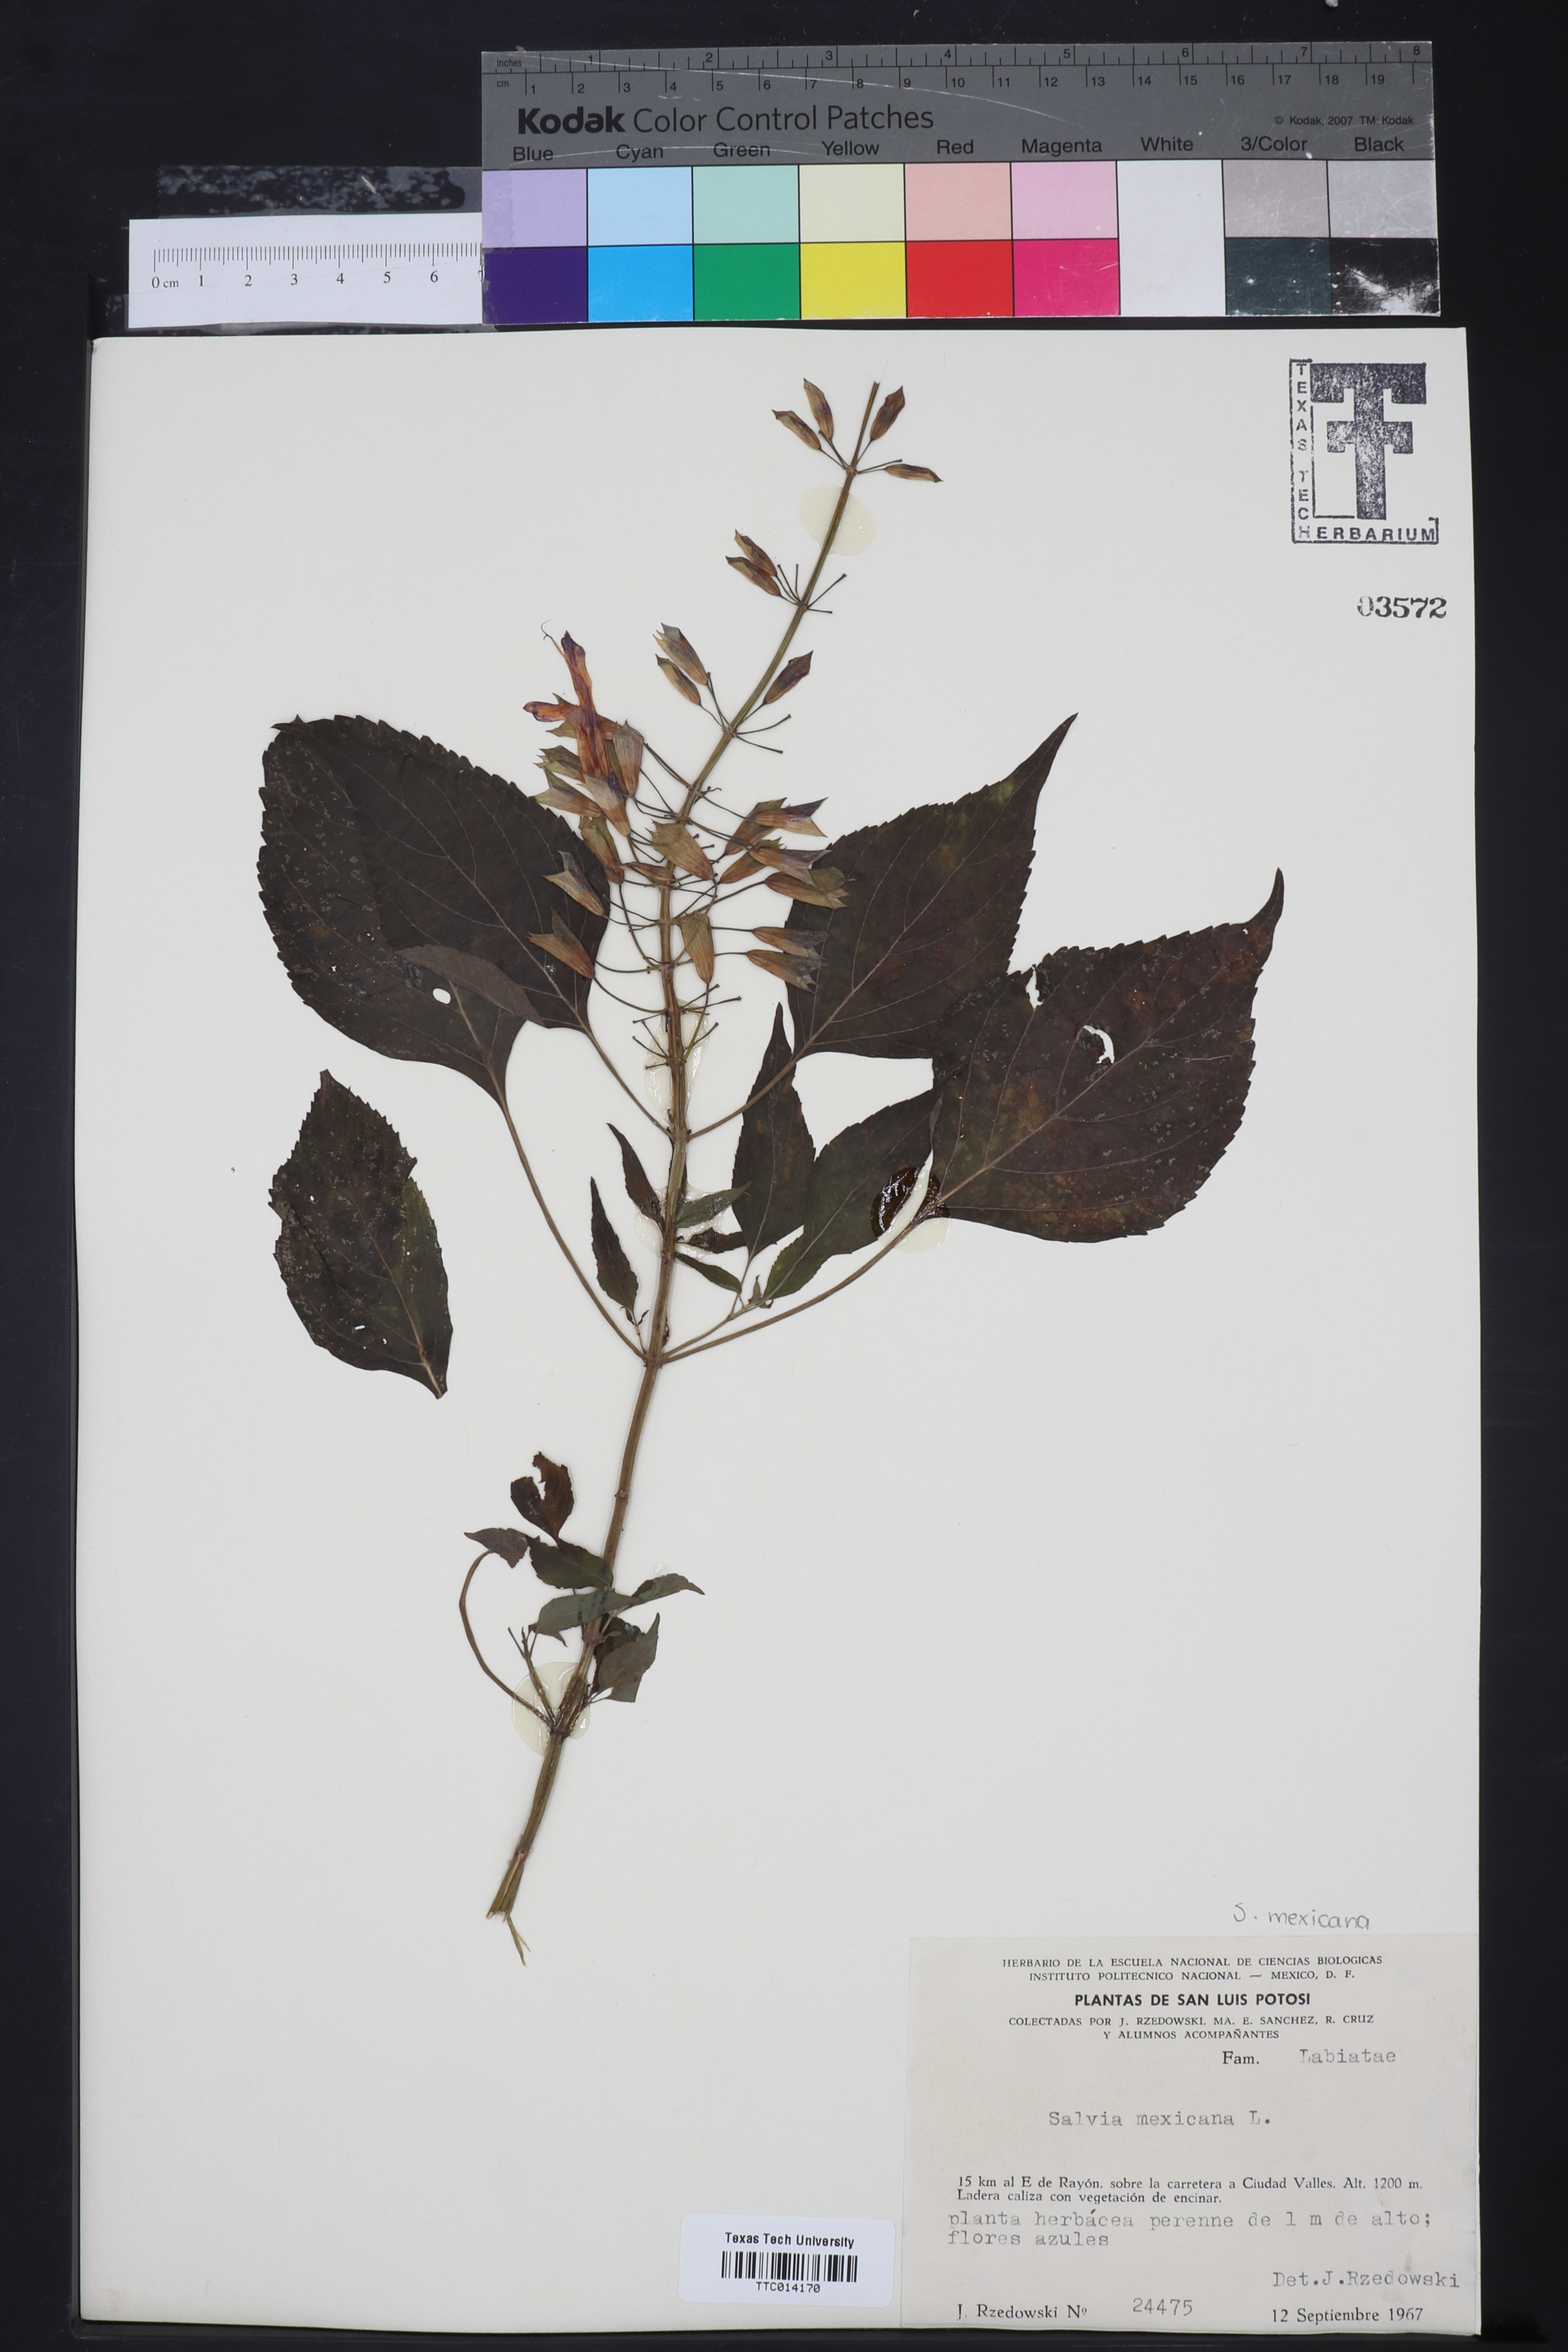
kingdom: Plantae
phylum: Tracheophyta
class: Magnoliopsida
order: Lamiales
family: Lamiaceae
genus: Salvia
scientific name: Salvia azurea
